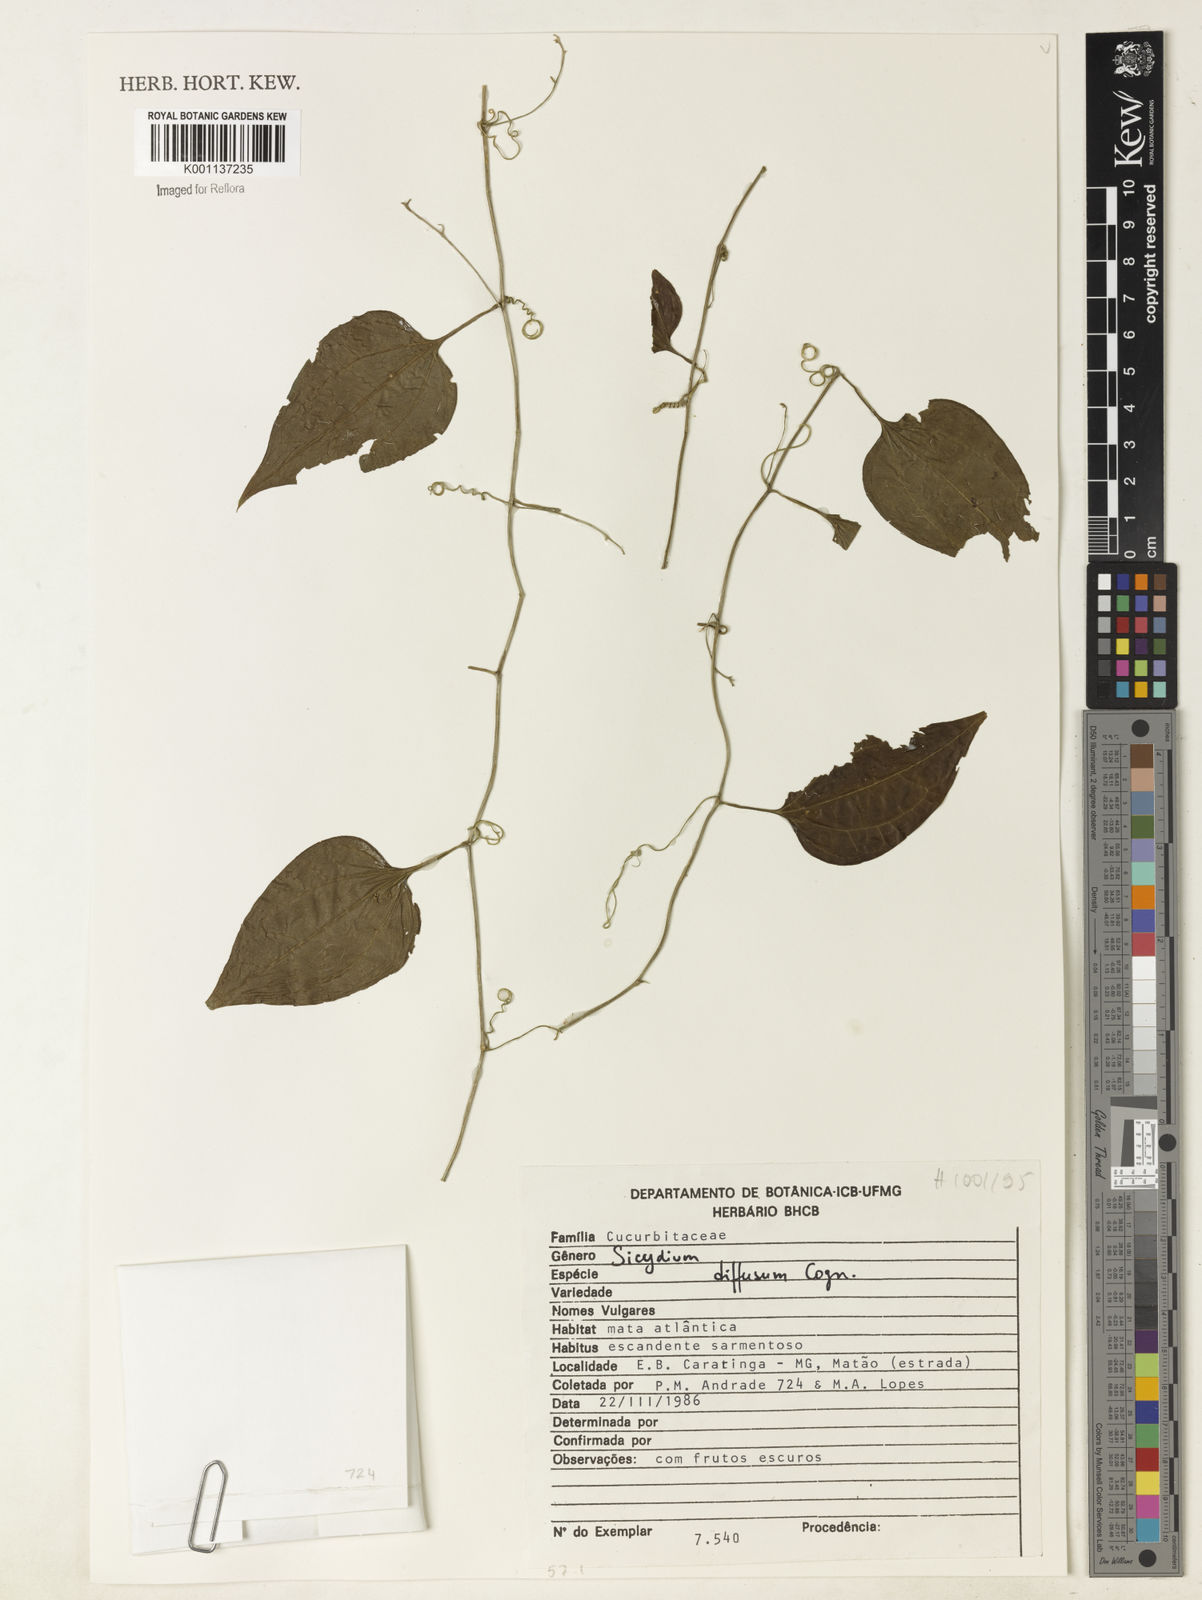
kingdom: Plantae
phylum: Tracheophyta
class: Magnoliopsida
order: Cucurbitales
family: Cucurbitaceae
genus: Sicydium
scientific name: Sicydium diffusum
